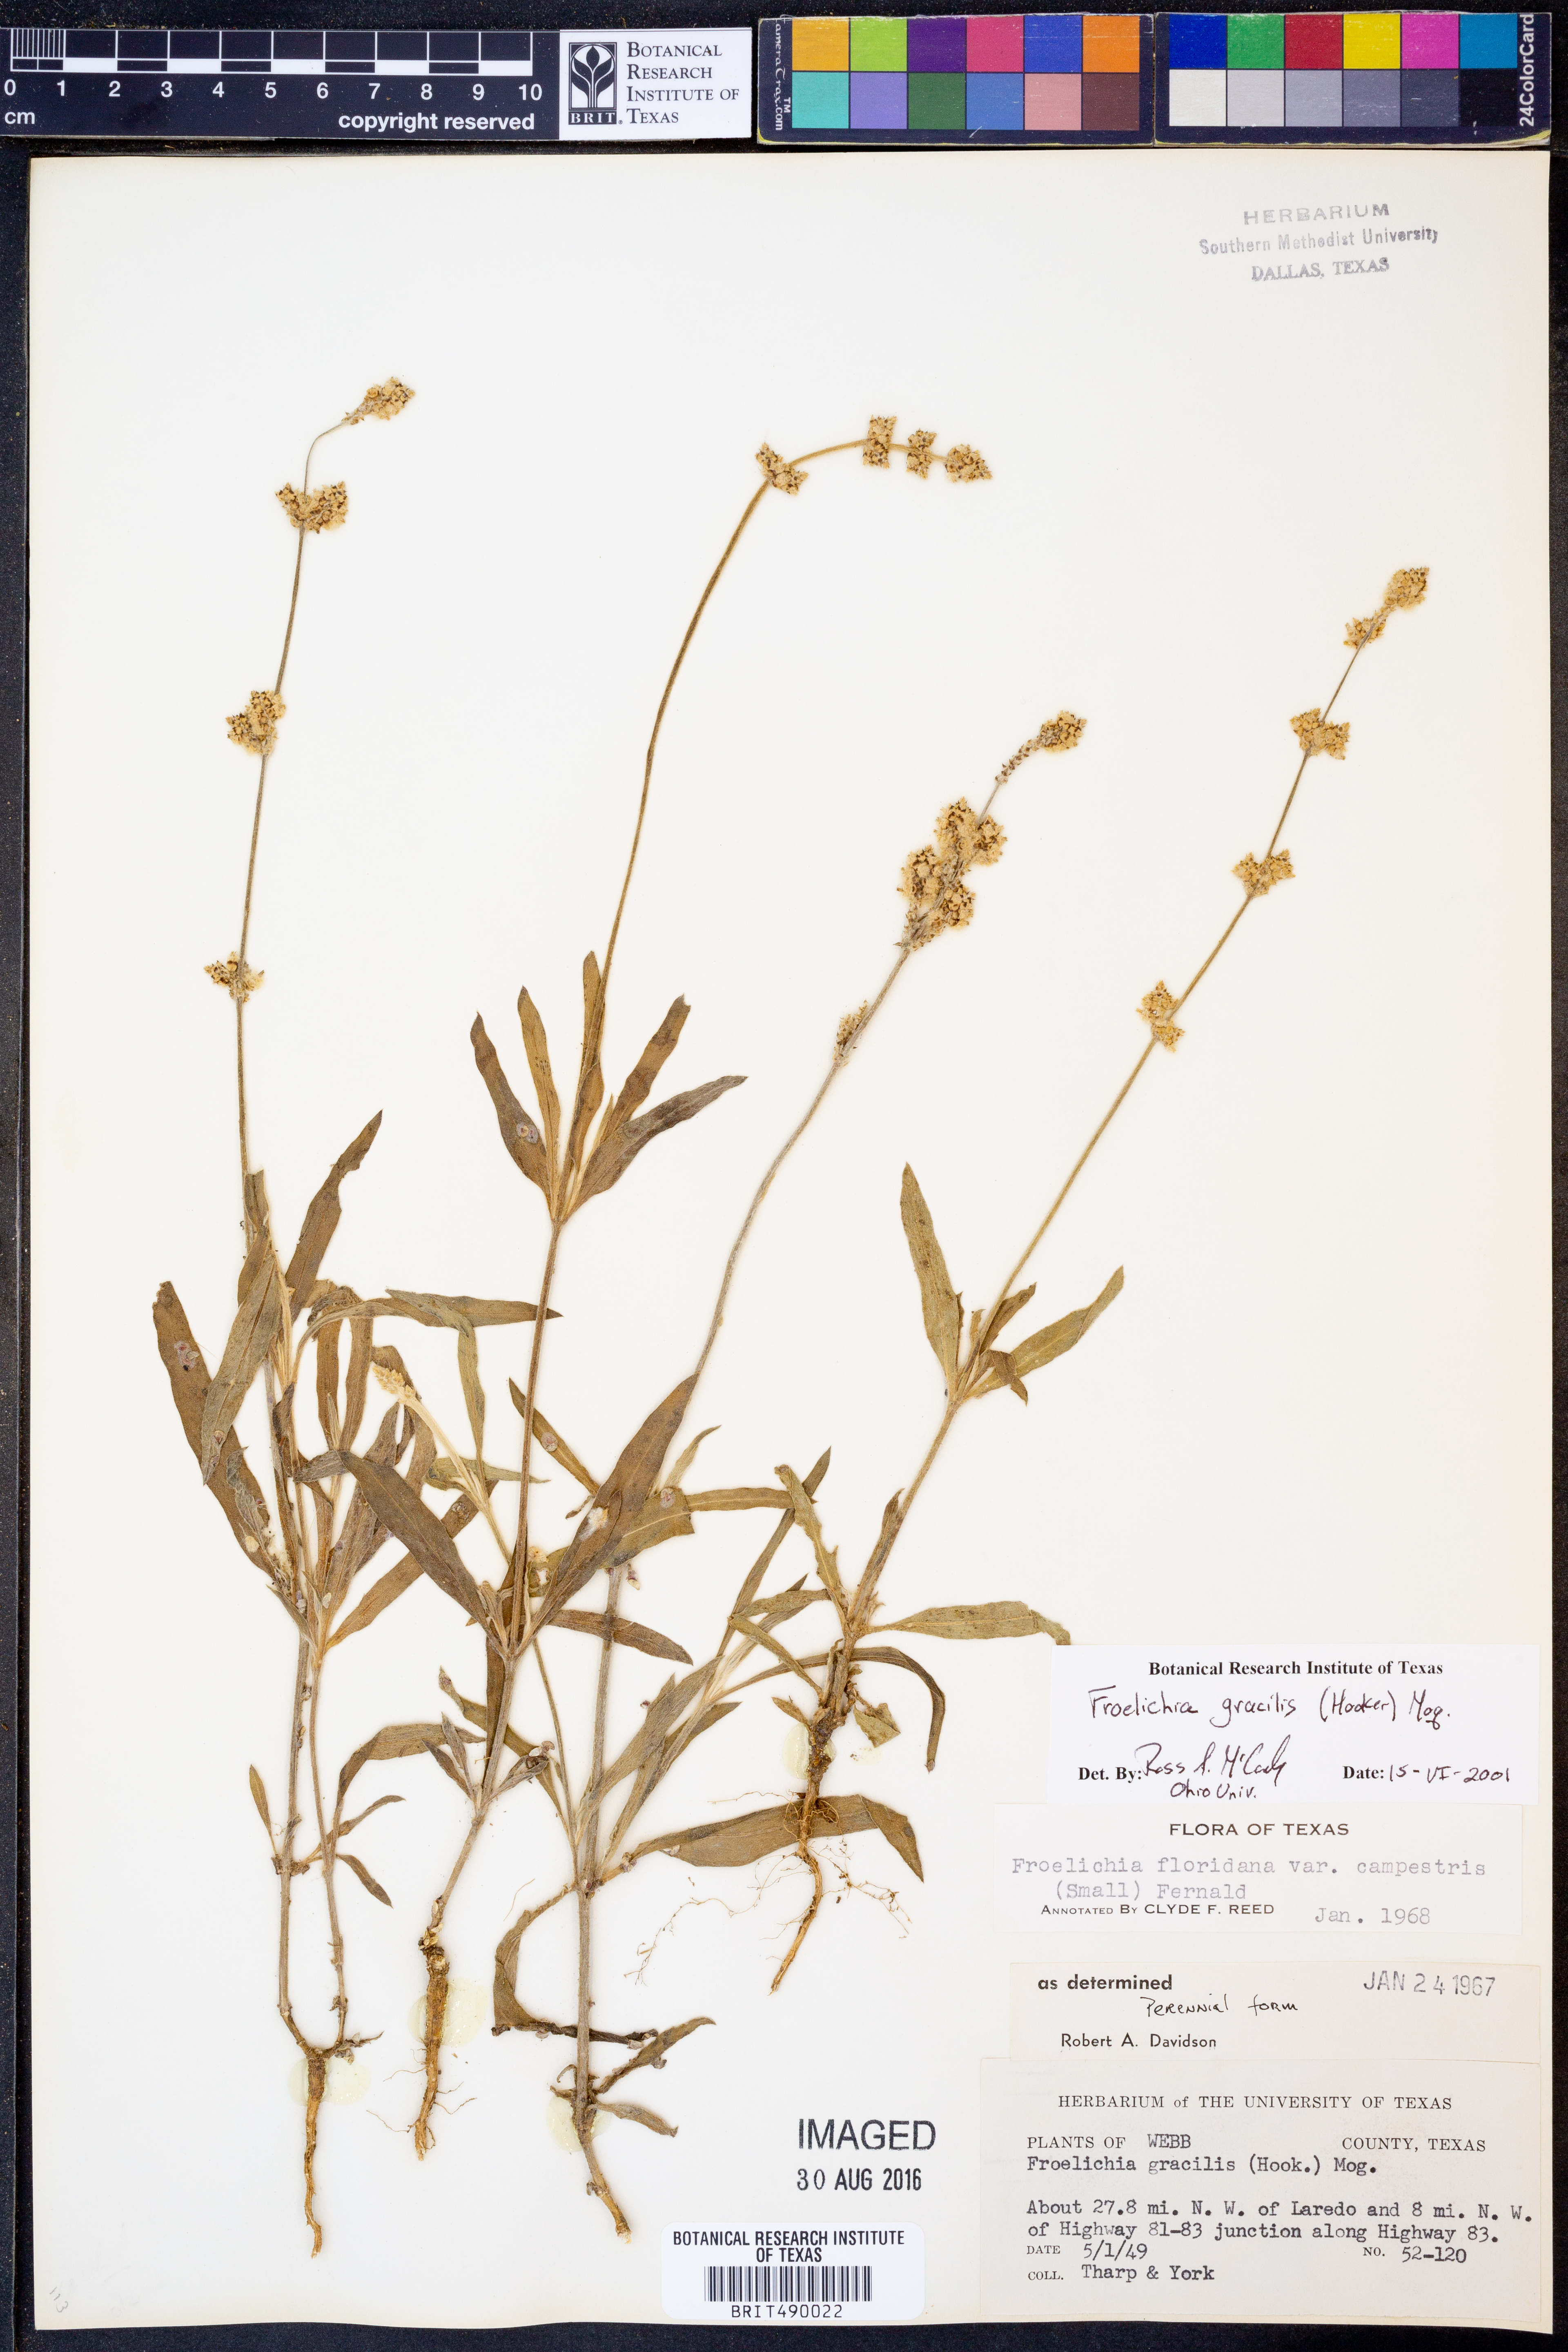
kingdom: Plantae
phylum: Tracheophyta
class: Magnoliopsida
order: Caryophyllales
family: Amaranthaceae
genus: Froelichia
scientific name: Froelichia gracilis
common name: Slender cottonweed
